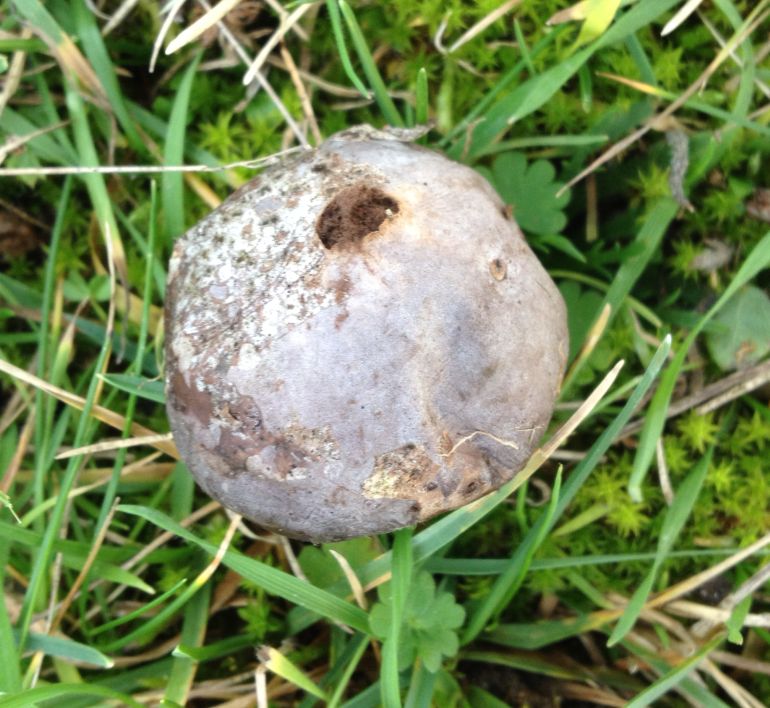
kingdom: Fungi
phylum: Basidiomycota
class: Agaricomycetes
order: Agaricales
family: Lycoperdaceae
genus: Bovista
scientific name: Bovista plumbea
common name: blygrå bovist
